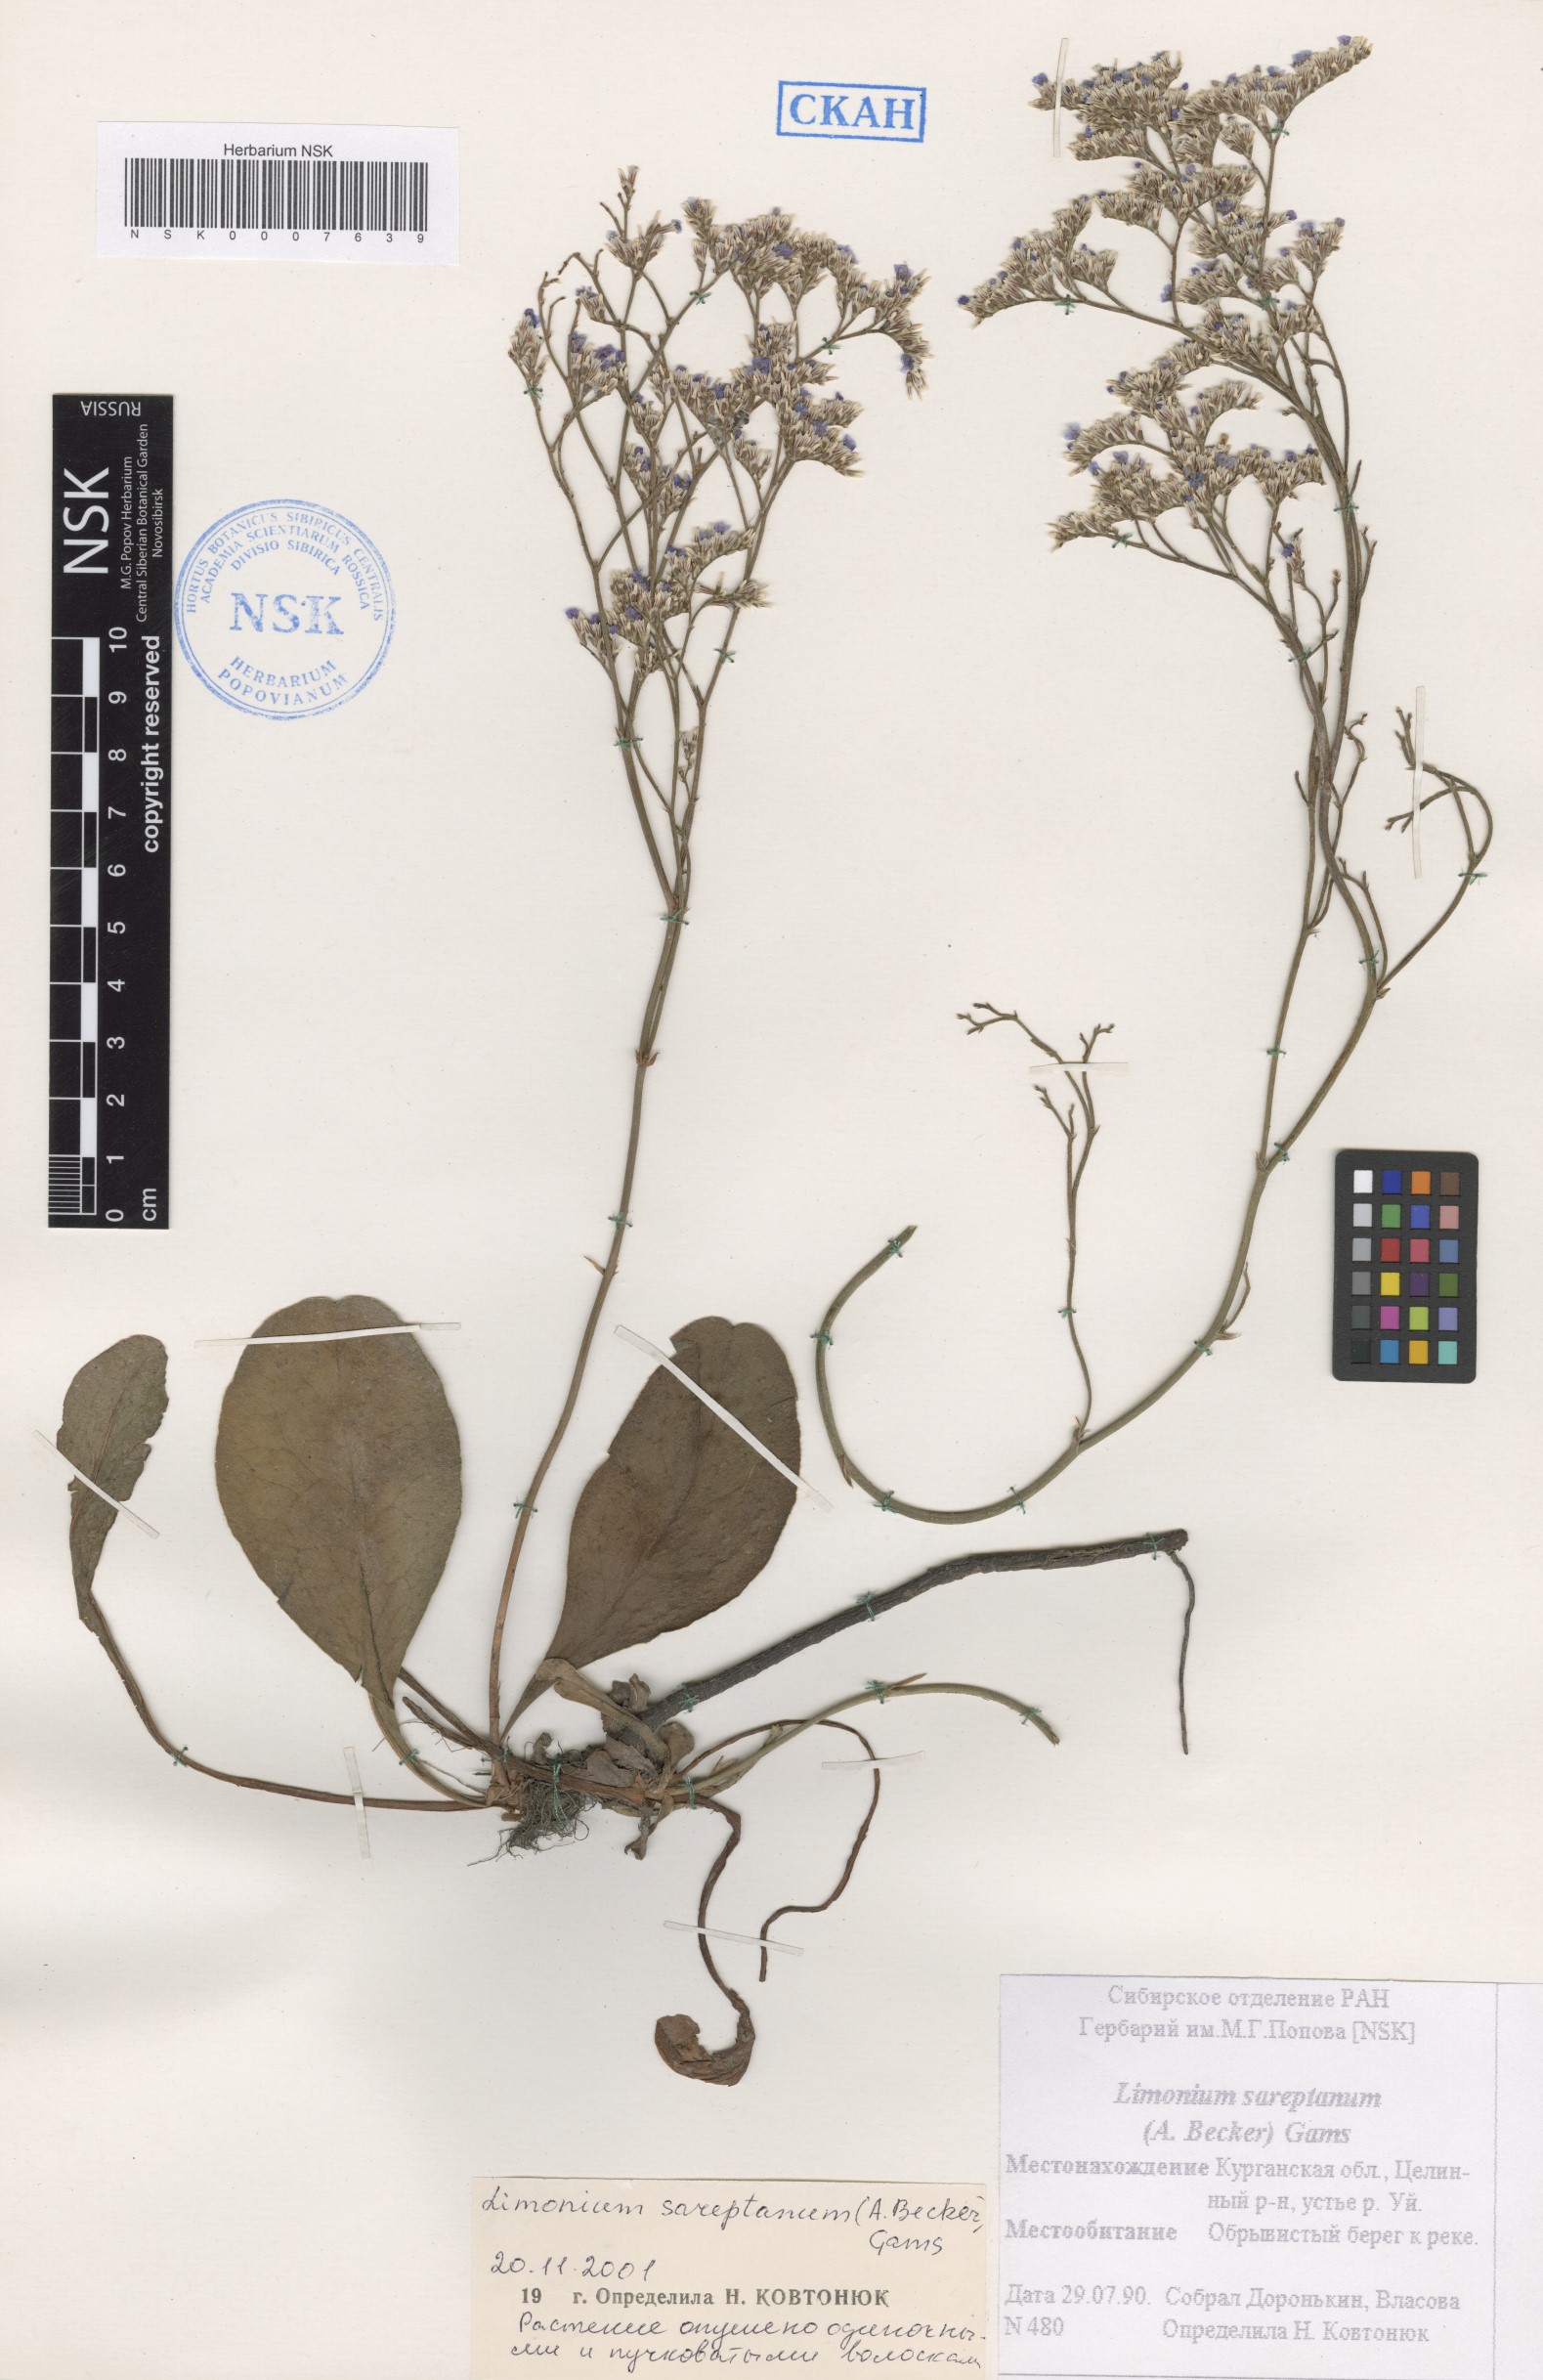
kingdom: Plantae
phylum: Tracheophyta
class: Magnoliopsida
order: Caryophyllales
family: Plumbaginaceae
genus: Limonium
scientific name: Limonium sareptanum
